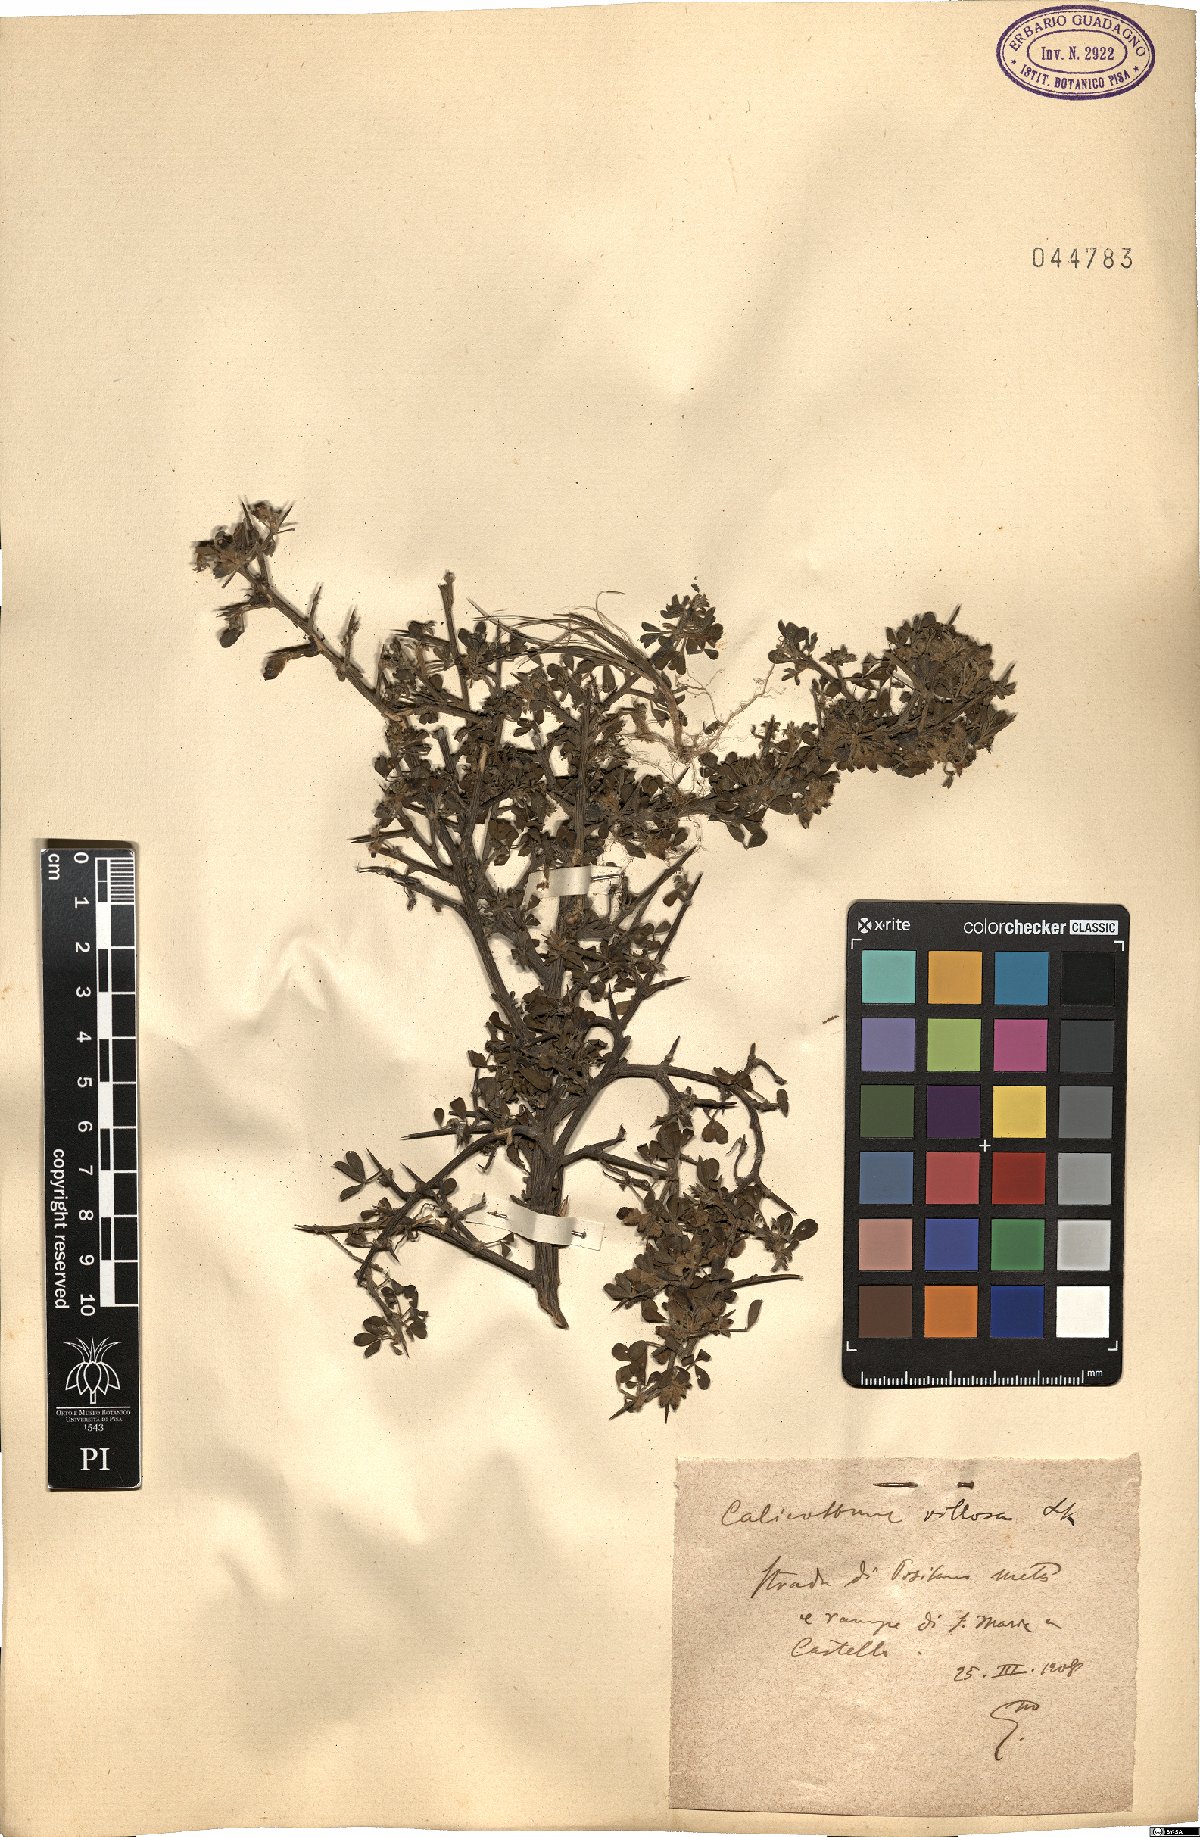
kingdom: Plantae
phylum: Tracheophyta
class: Magnoliopsida
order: Fabales
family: Fabaceae
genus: Calicotome
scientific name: Calicotome villosa
